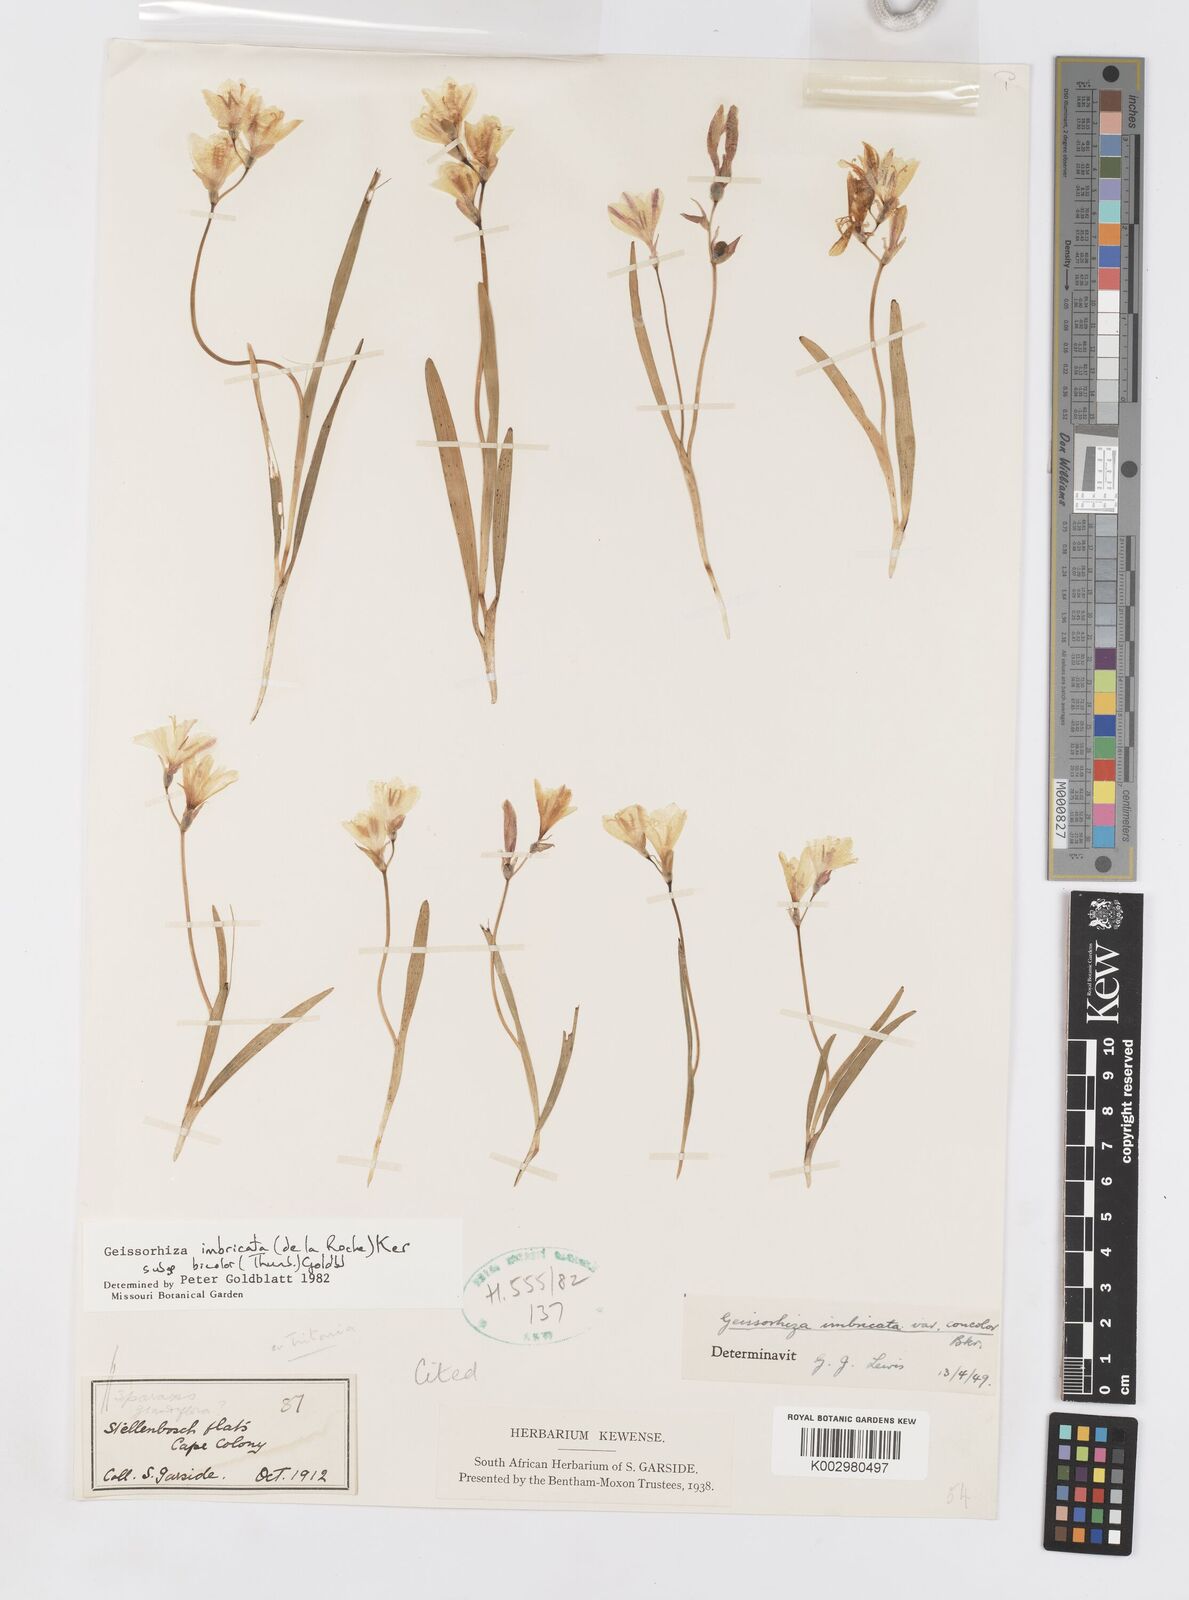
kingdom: Plantae
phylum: Tracheophyta
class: Liliopsida
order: Asparagales
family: Iridaceae
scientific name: Iridaceae
